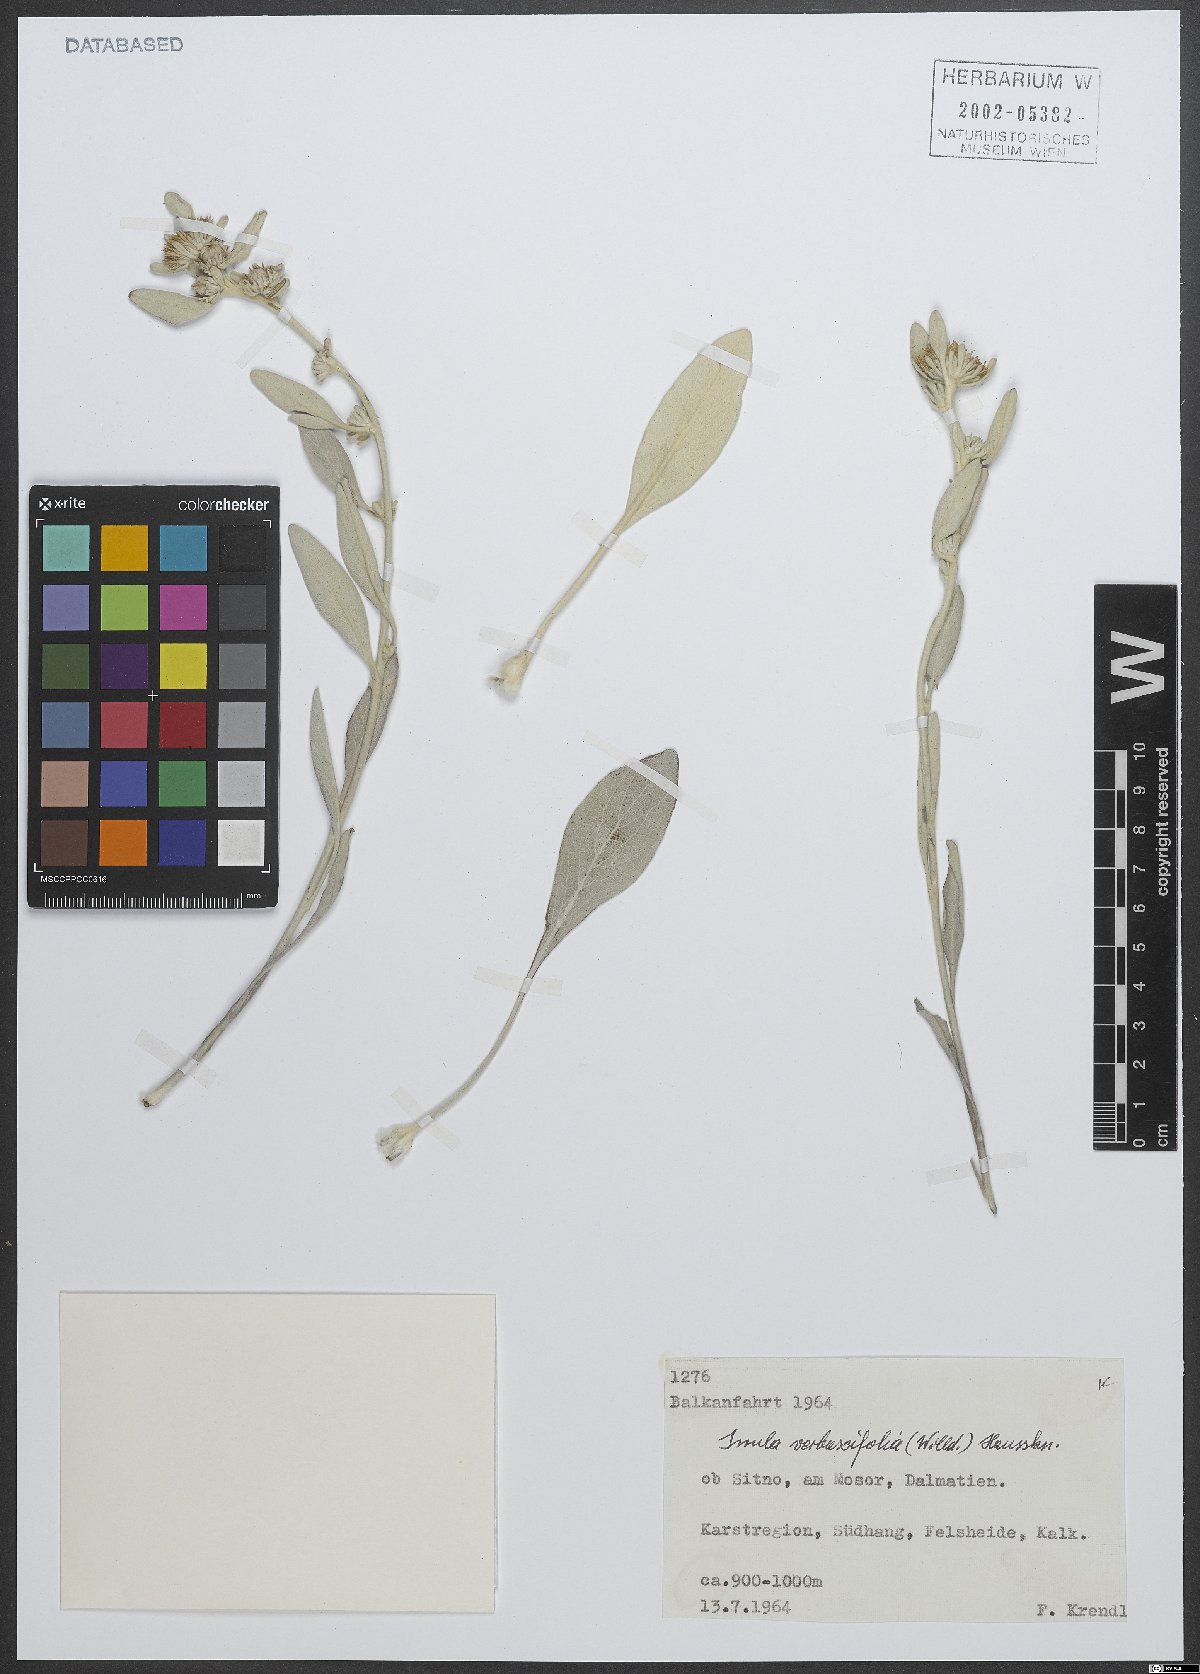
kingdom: Plantae
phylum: Tracheophyta
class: Magnoliopsida
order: Asterales
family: Asteraceae
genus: Pentanema
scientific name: Pentanema verbascifolium
